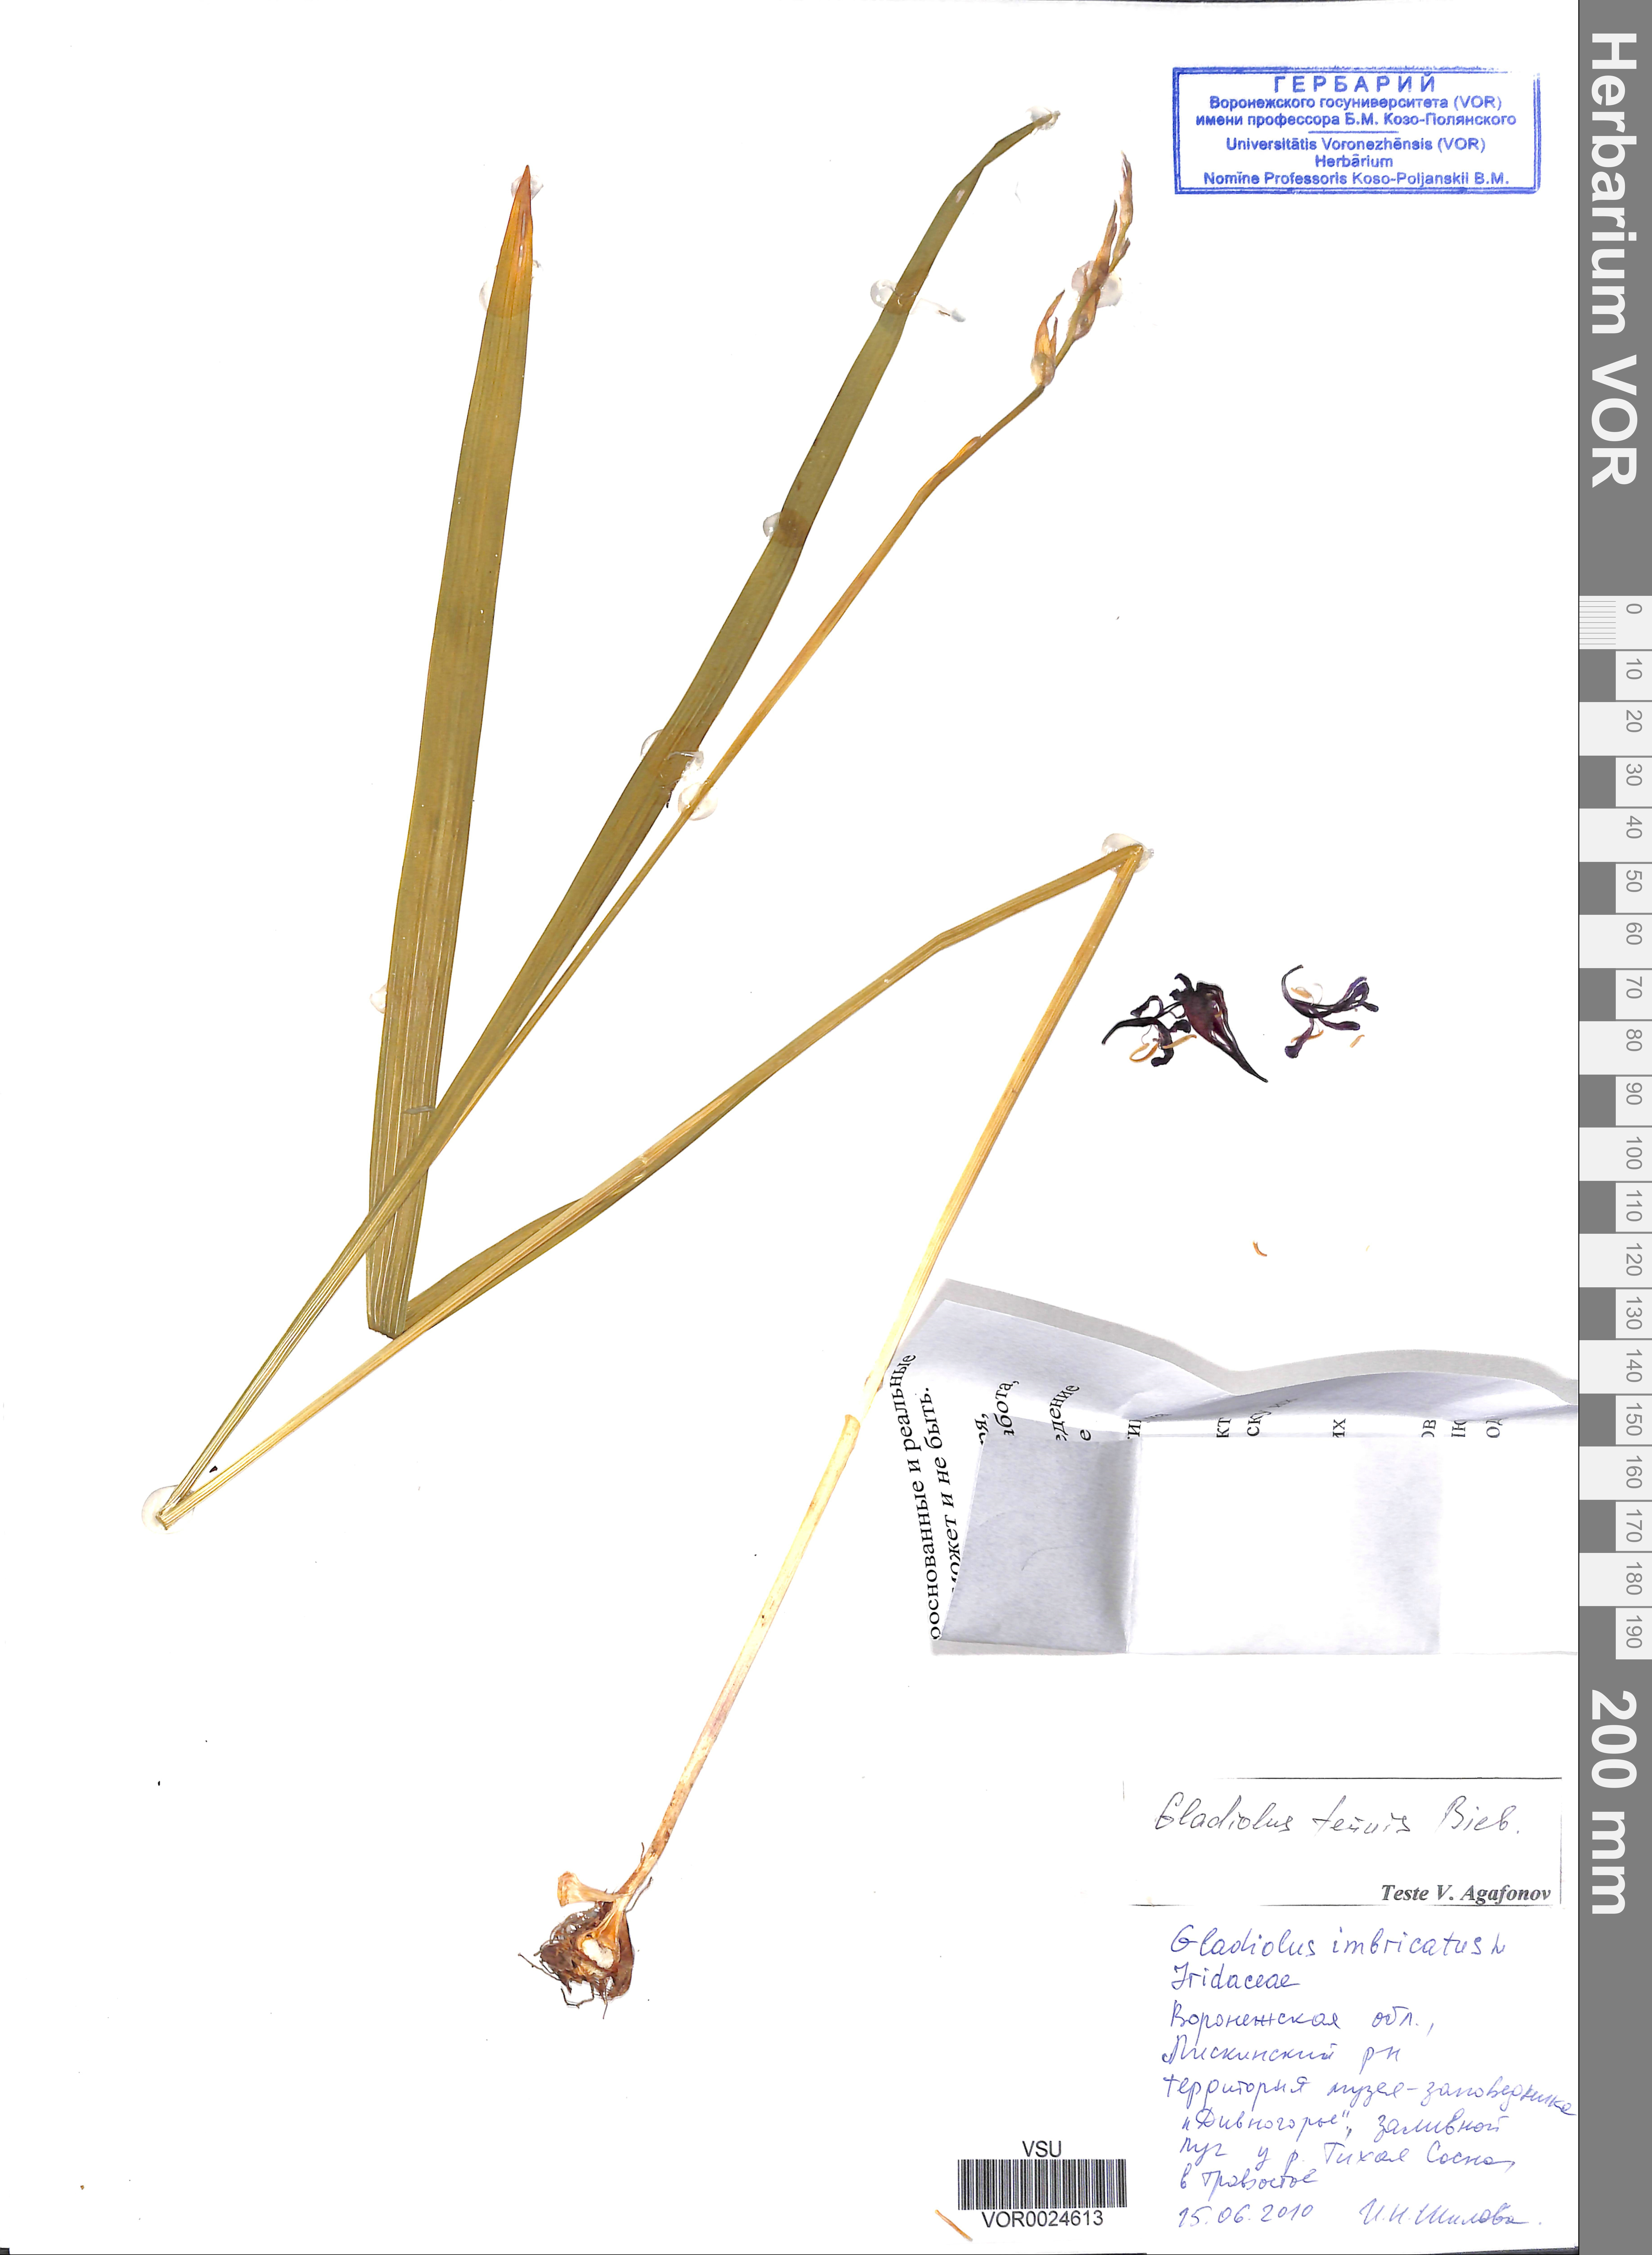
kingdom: Plantae
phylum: Tracheophyta
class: Liliopsida
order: Asparagales
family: Iridaceae
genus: Gladiolus
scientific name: Gladiolus tenuis
